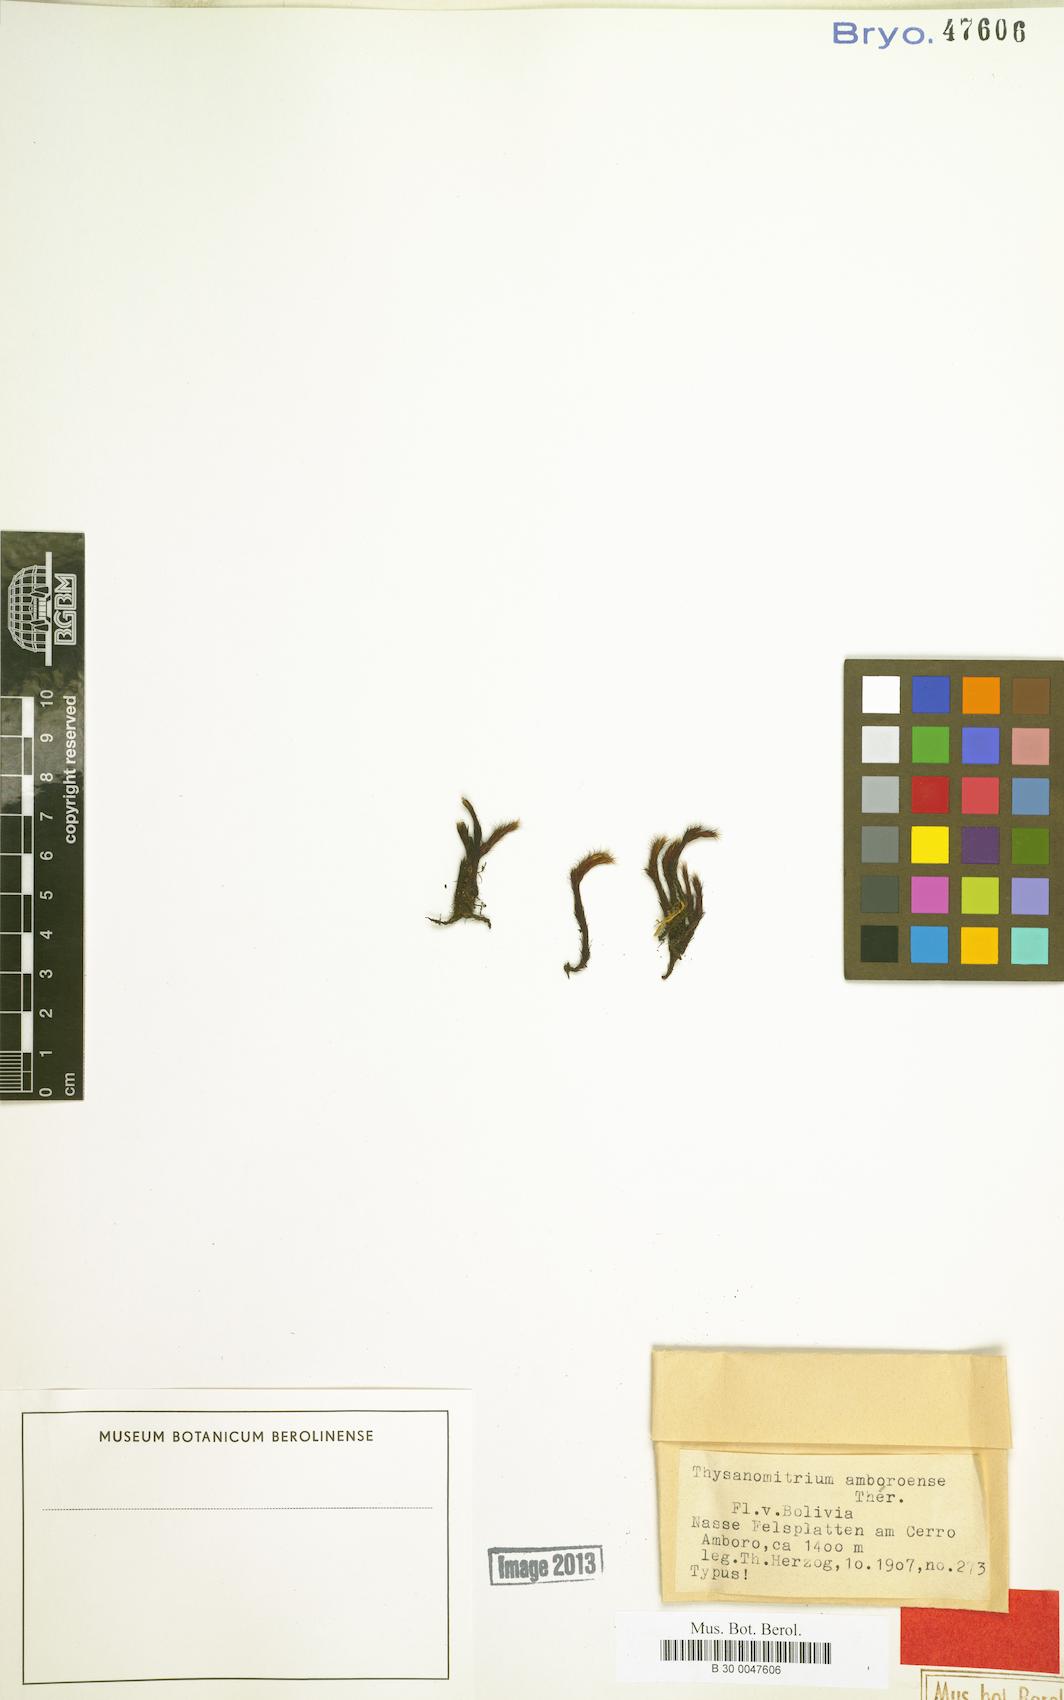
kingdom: Plantae
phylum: Bryophyta
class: Bryopsida
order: Dicranales
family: Dicranaceae
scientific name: Dicranaceae
